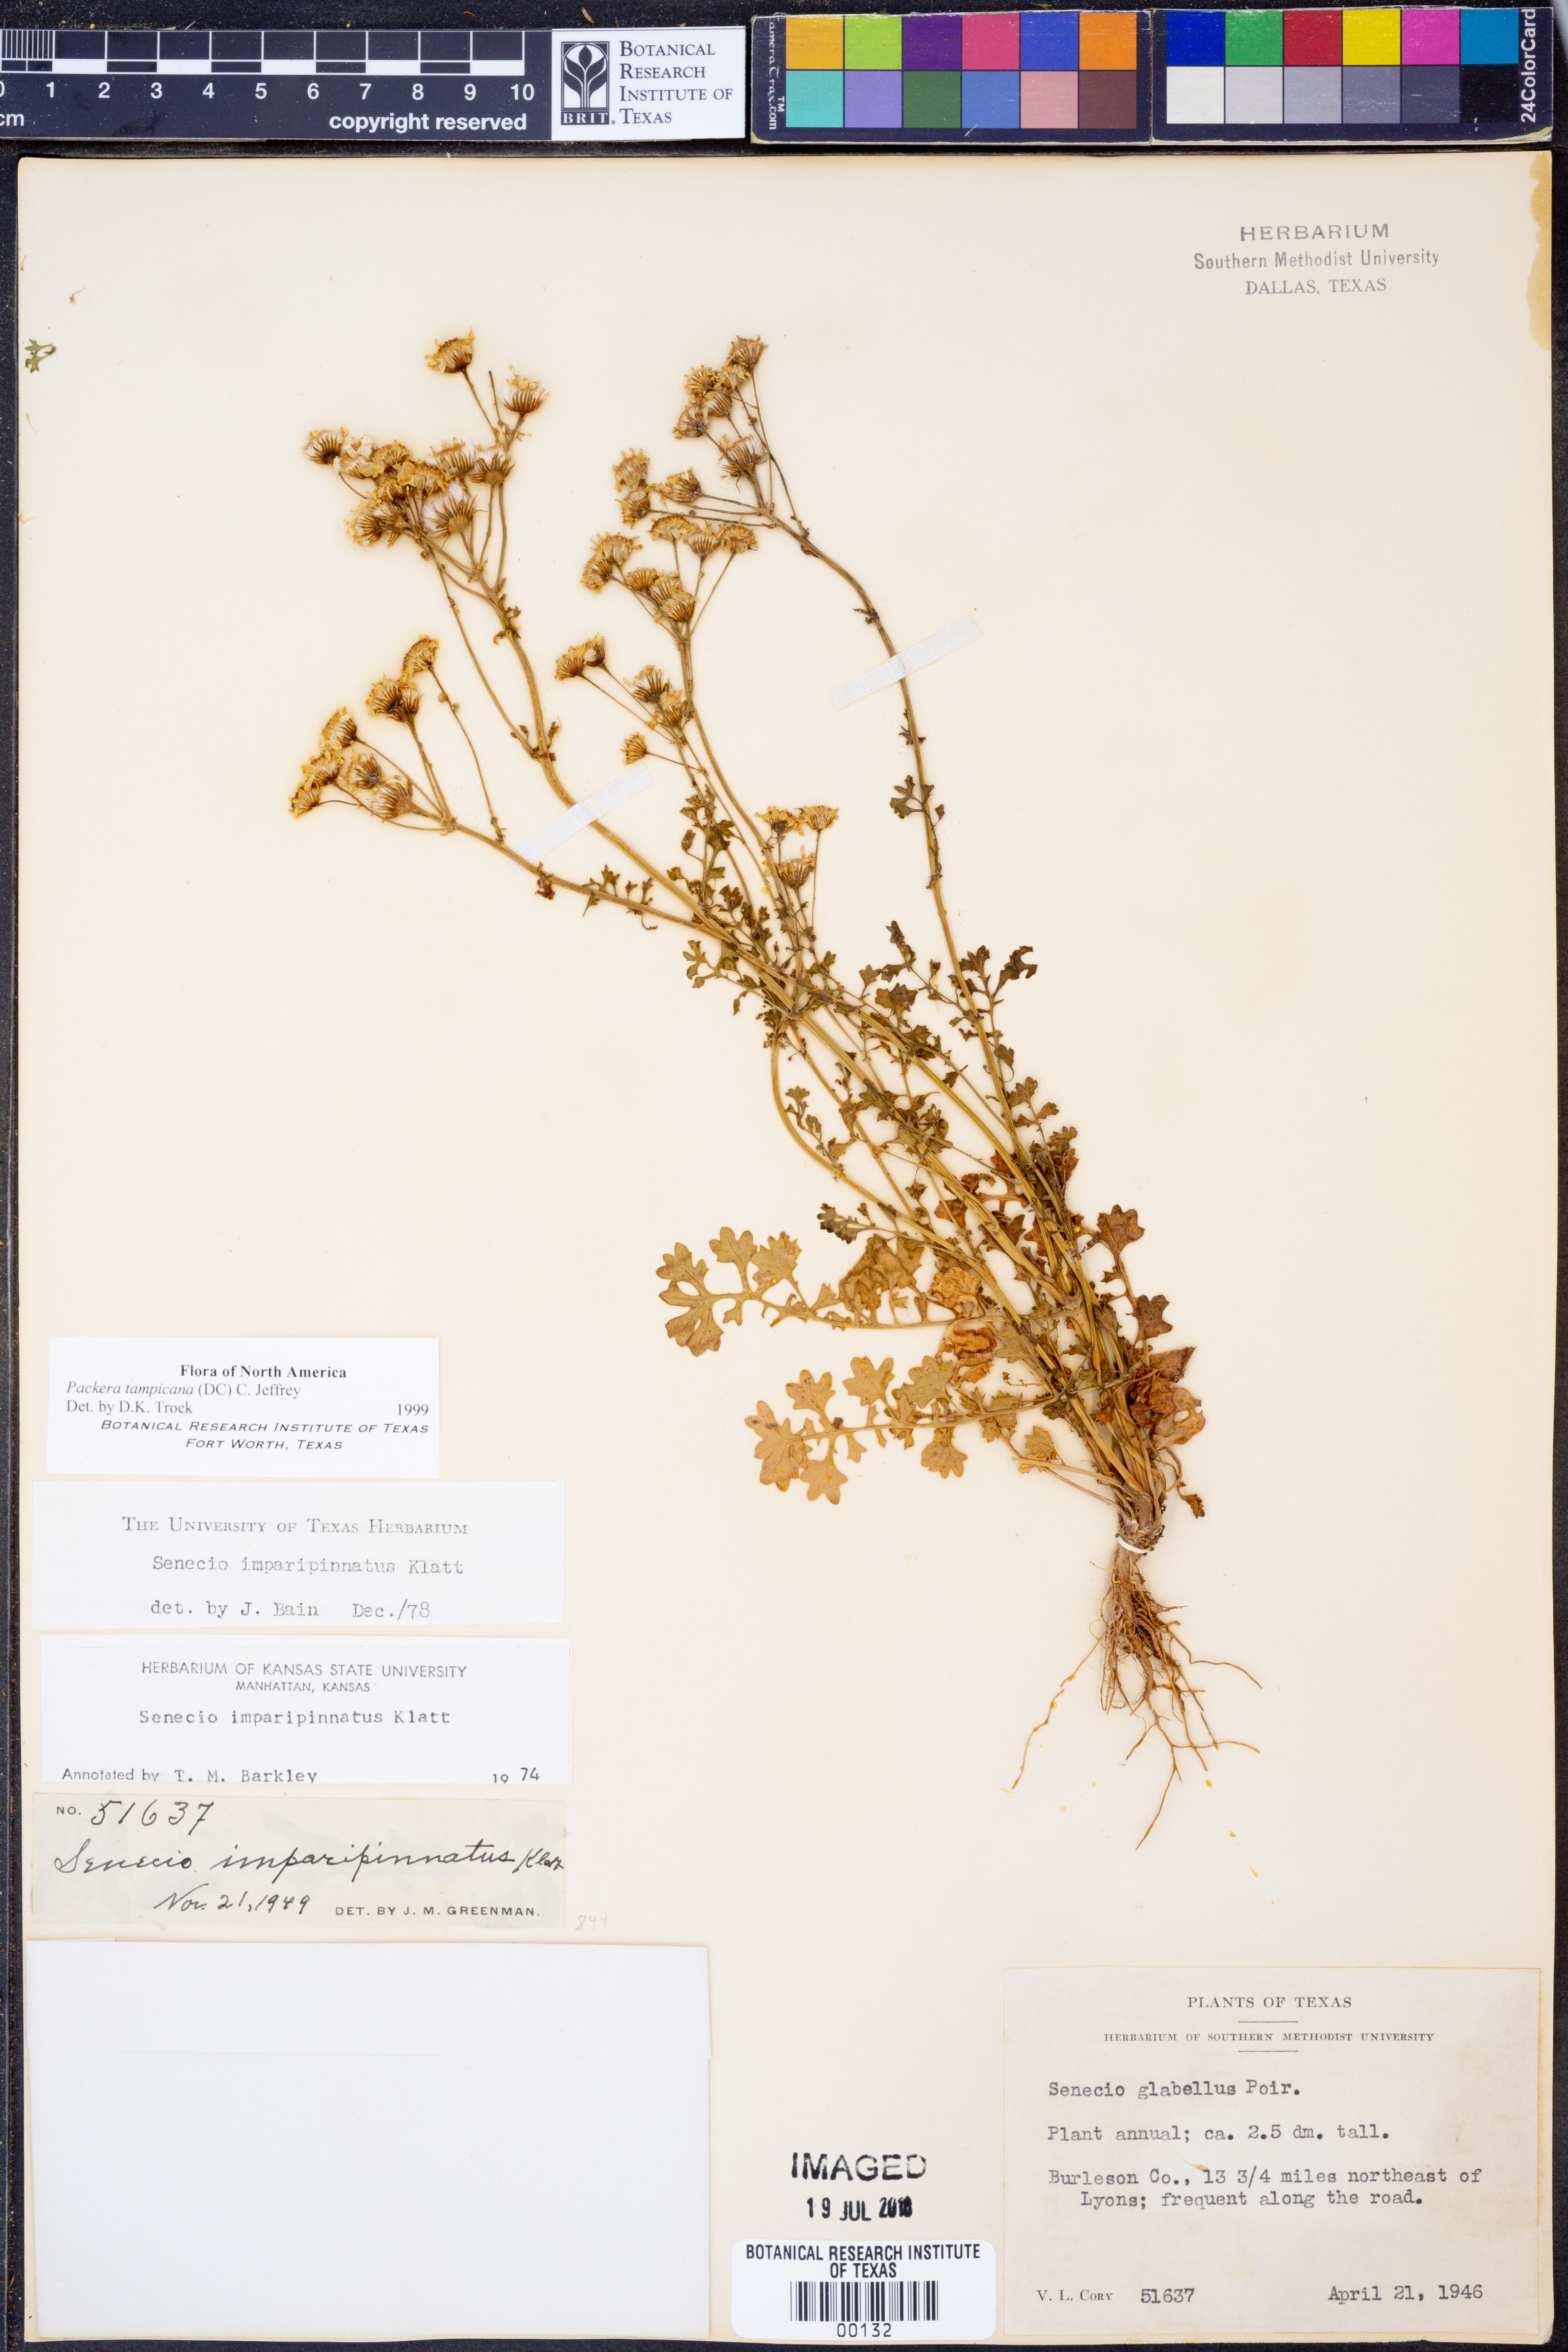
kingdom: Plantae
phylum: Tracheophyta
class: Magnoliopsida
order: Asterales
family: Asteraceae
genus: Packera
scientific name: Packera tampicana
